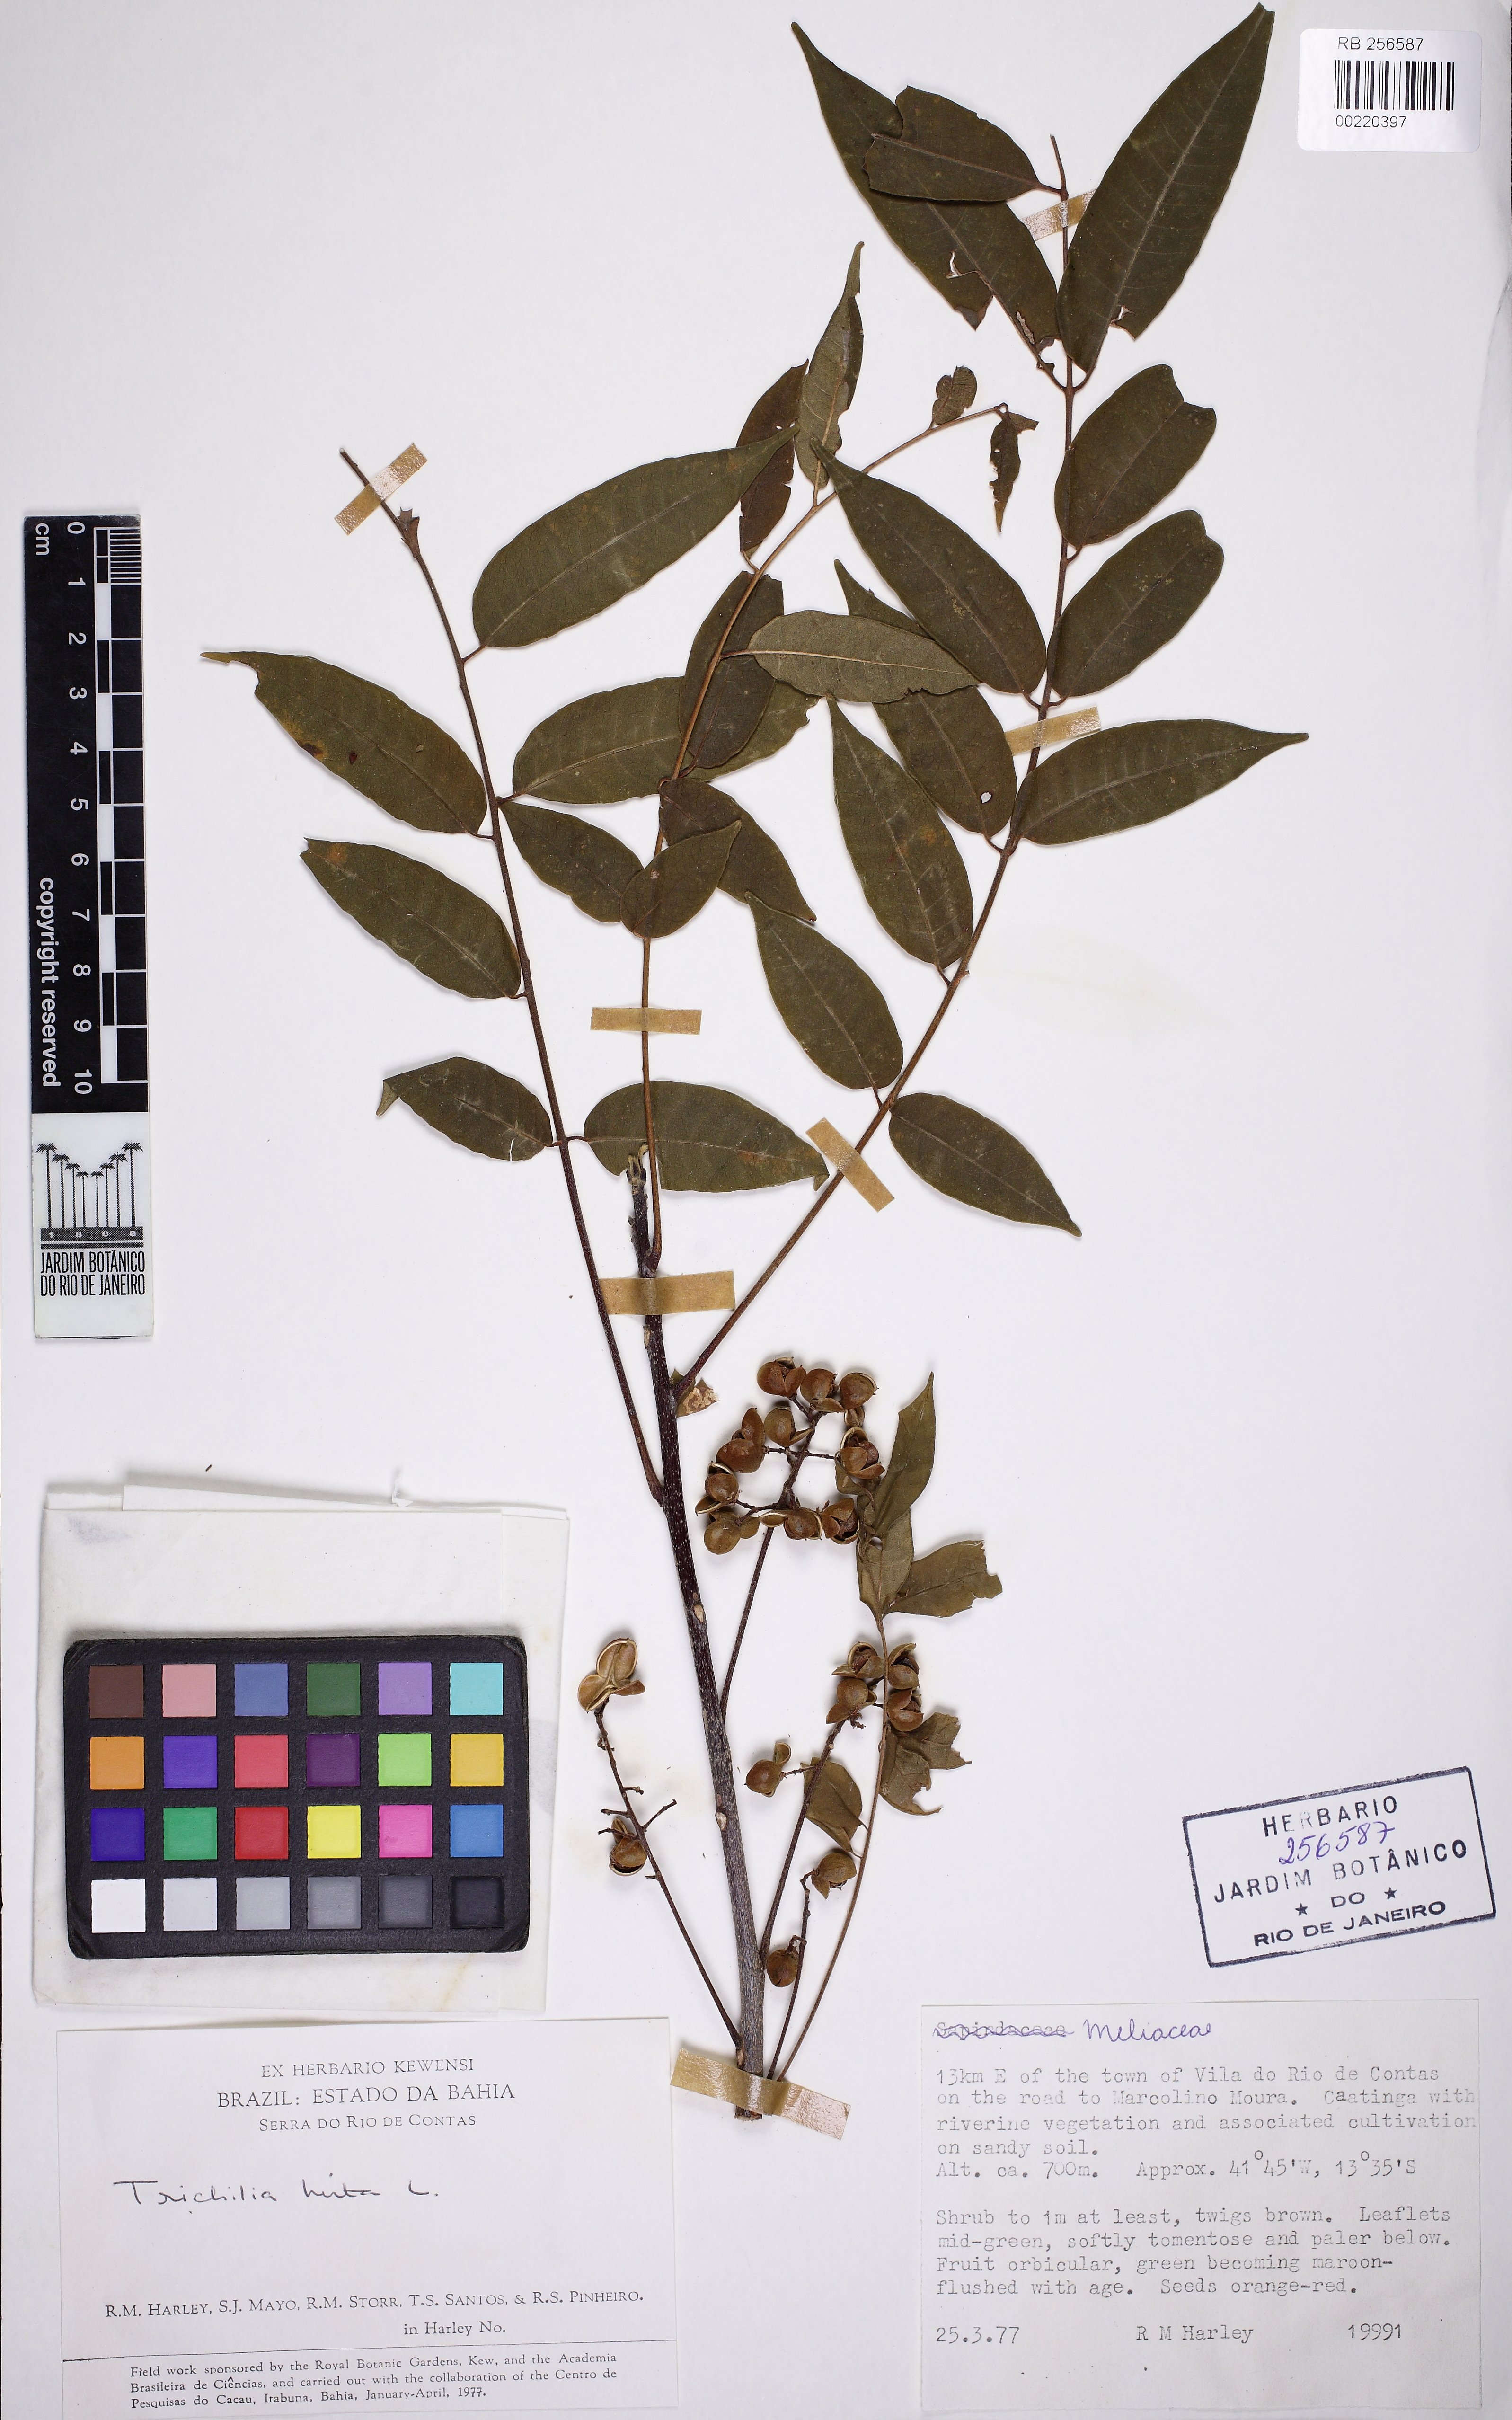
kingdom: Plantae
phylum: Tracheophyta
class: Magnoliopsida
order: Sapindales
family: Meliaceae
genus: Trichilia
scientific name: Trichilia hirta
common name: Red-cedar
